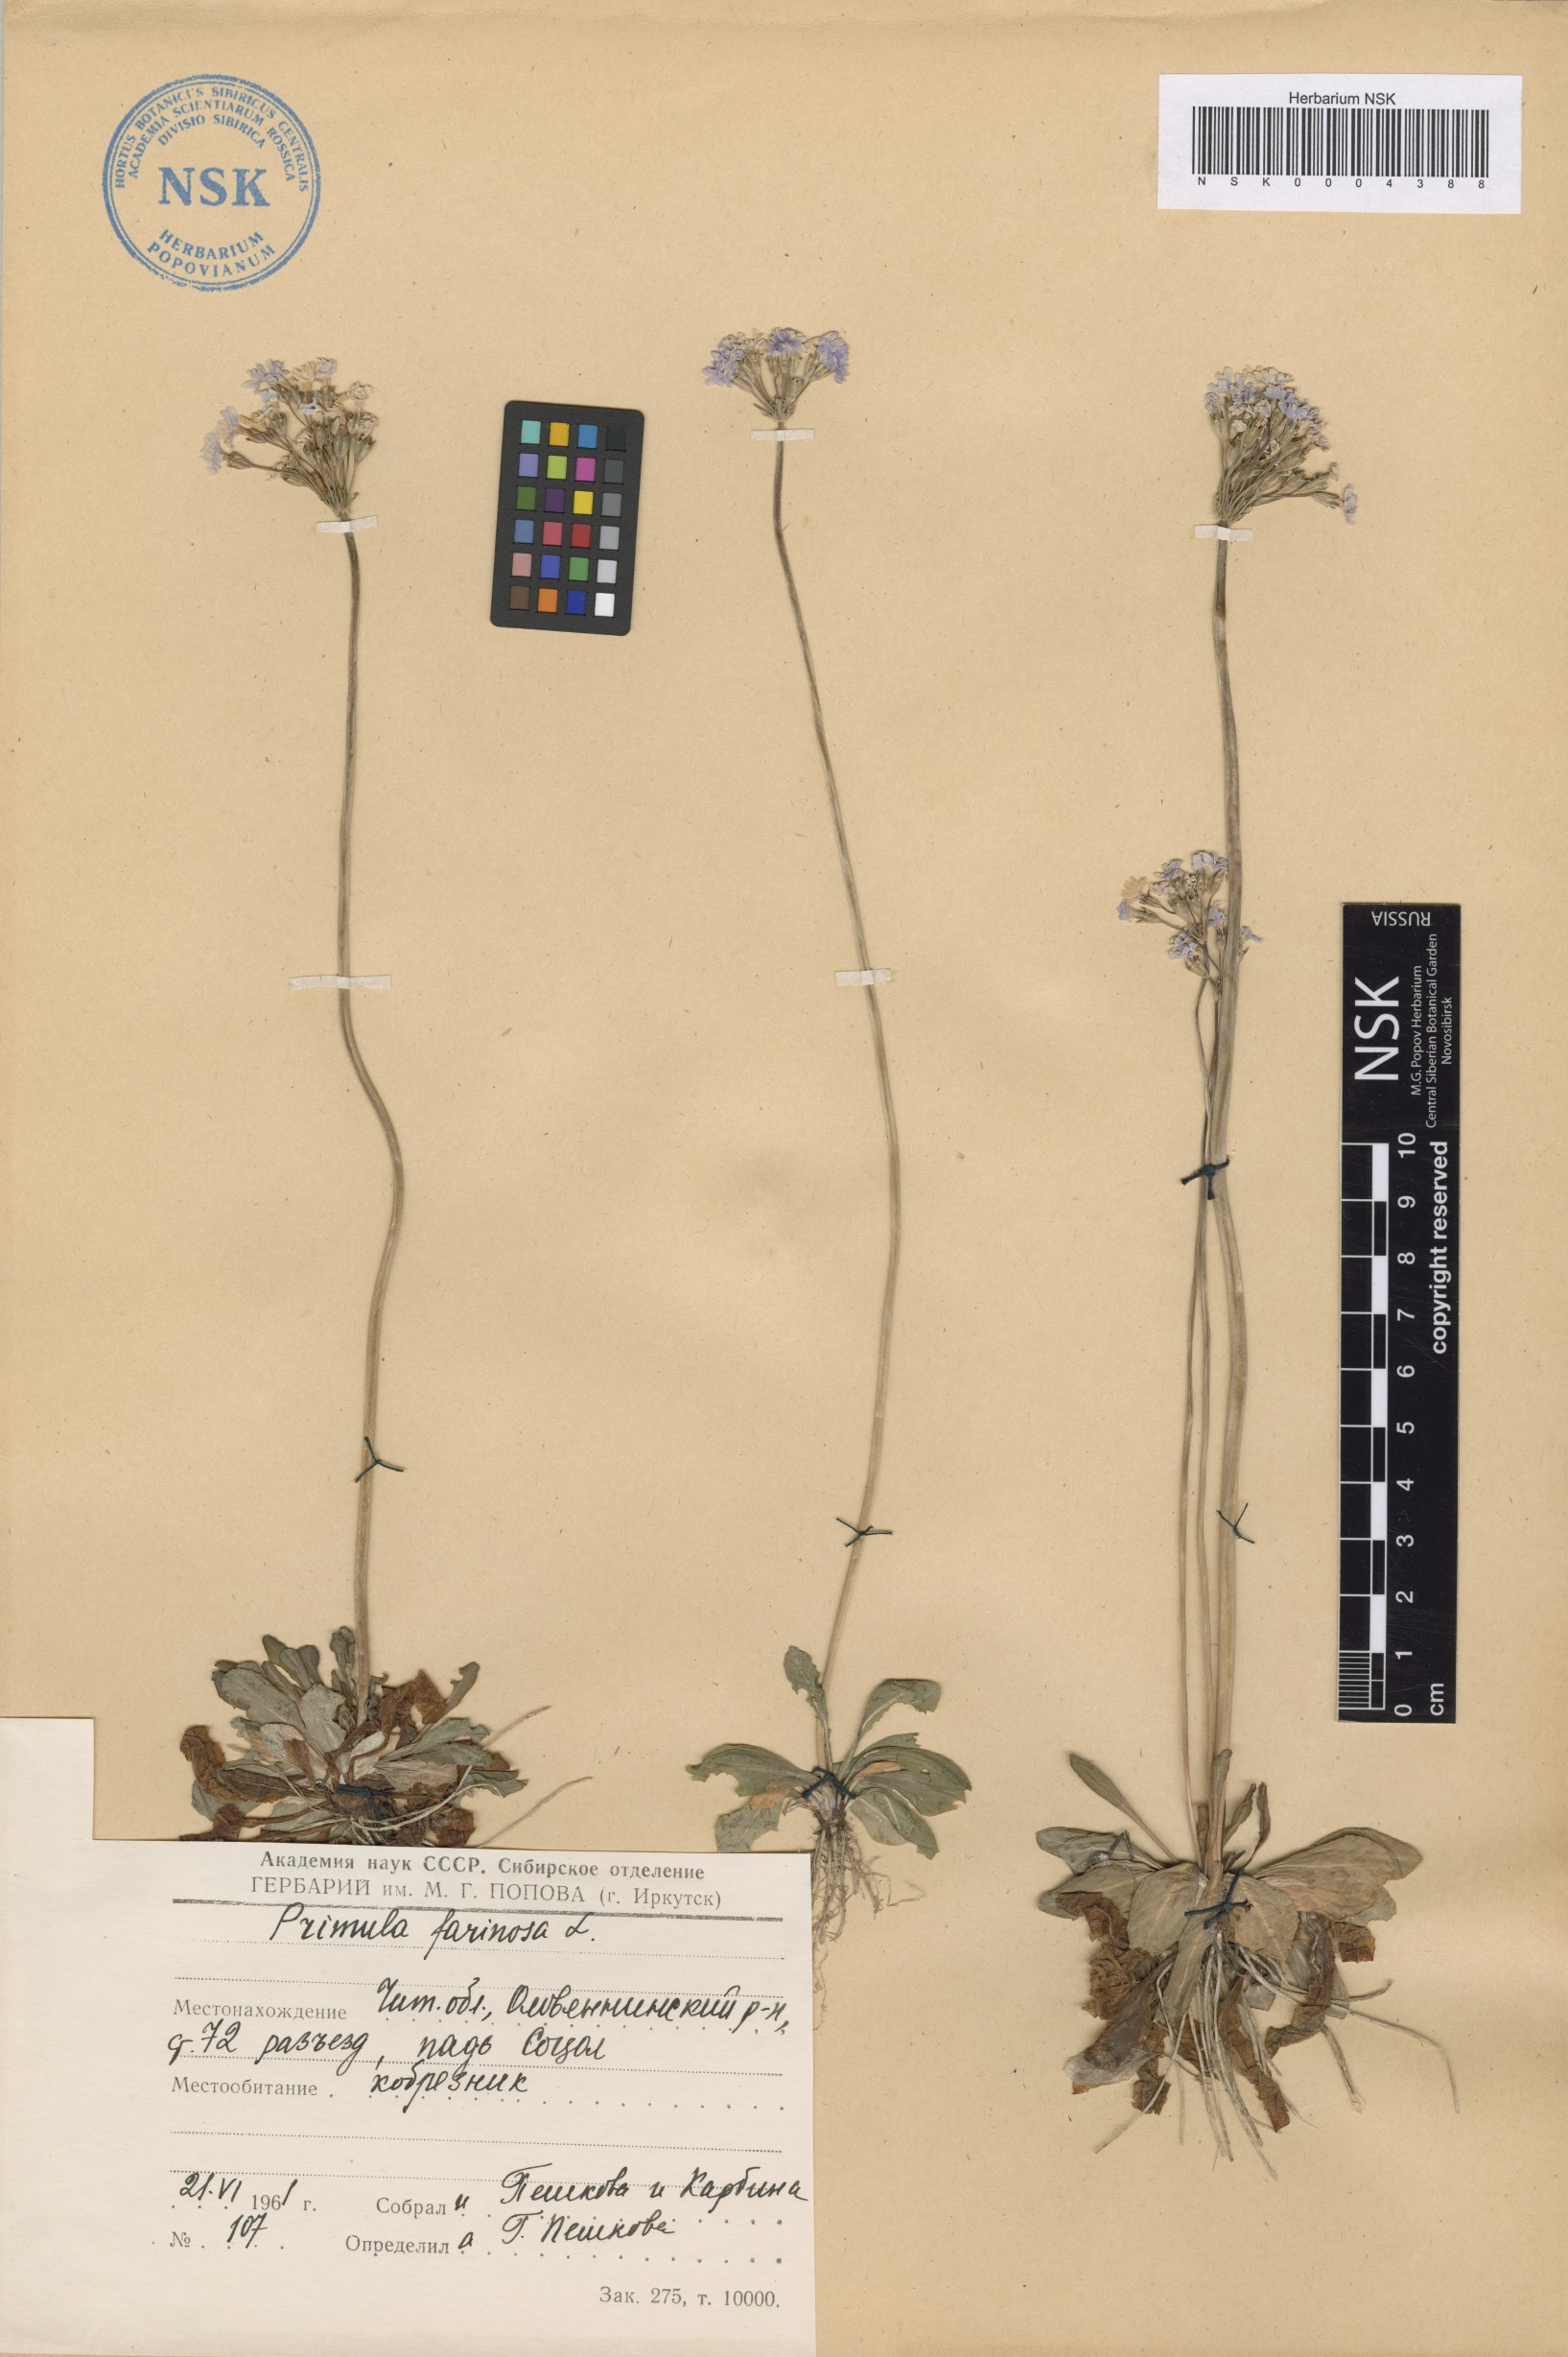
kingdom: Plantae
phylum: Tracheophyta
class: Magnoliopsida
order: Ericales
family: Primulaceae
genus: Primula
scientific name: Primula farinosa
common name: Bird's-eye primrose
